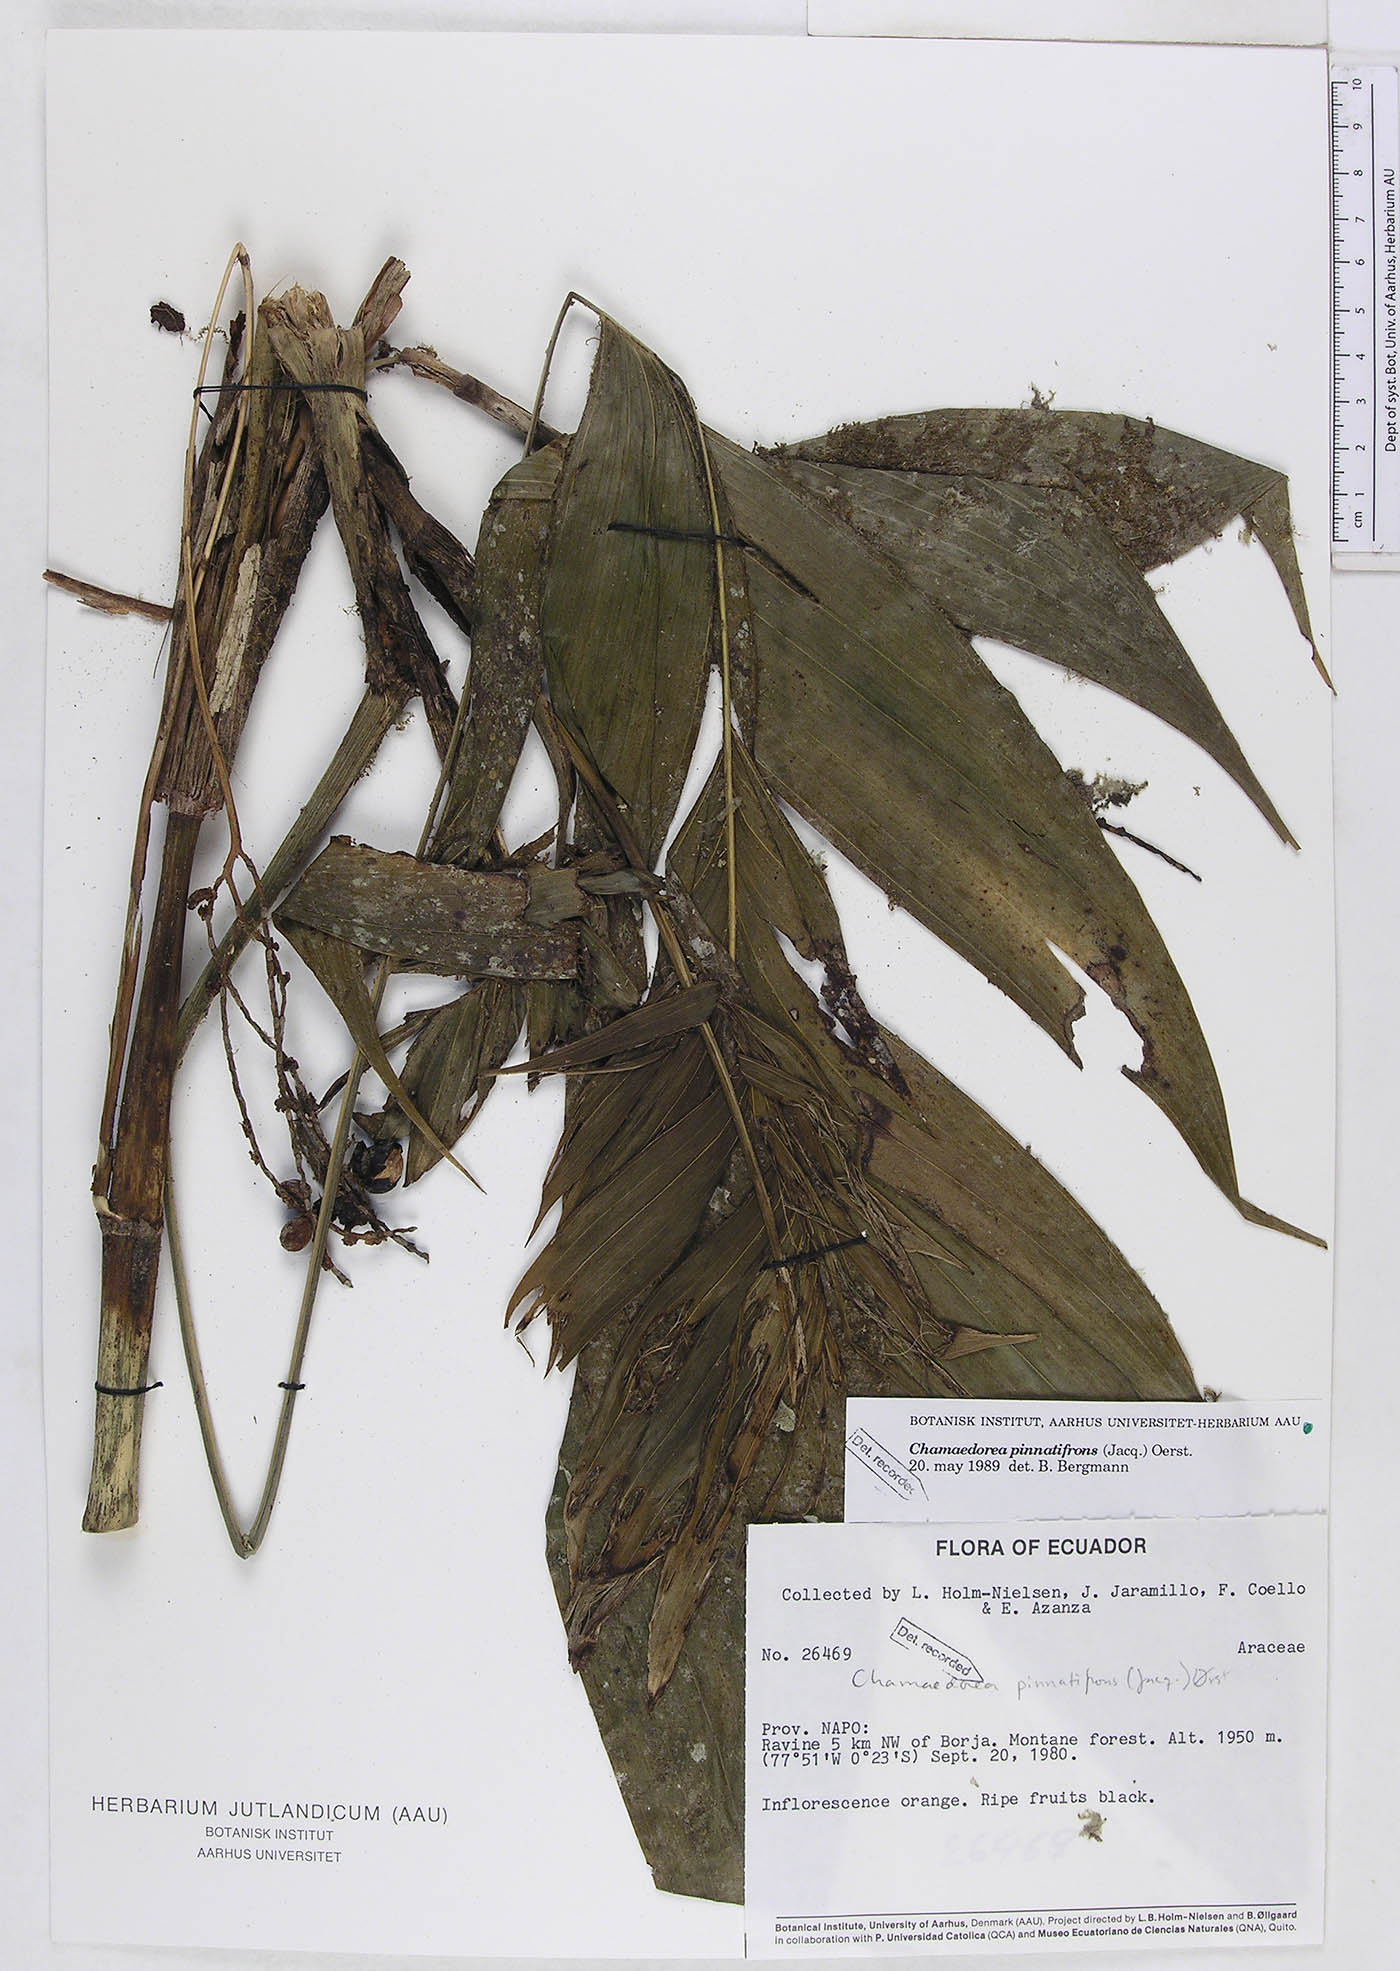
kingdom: Plantae
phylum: Tracheophyta
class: Liliopsida
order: Arecales
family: Arecaceae
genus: Chamaedorea
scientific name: Chamaedorea pinnatifrons
